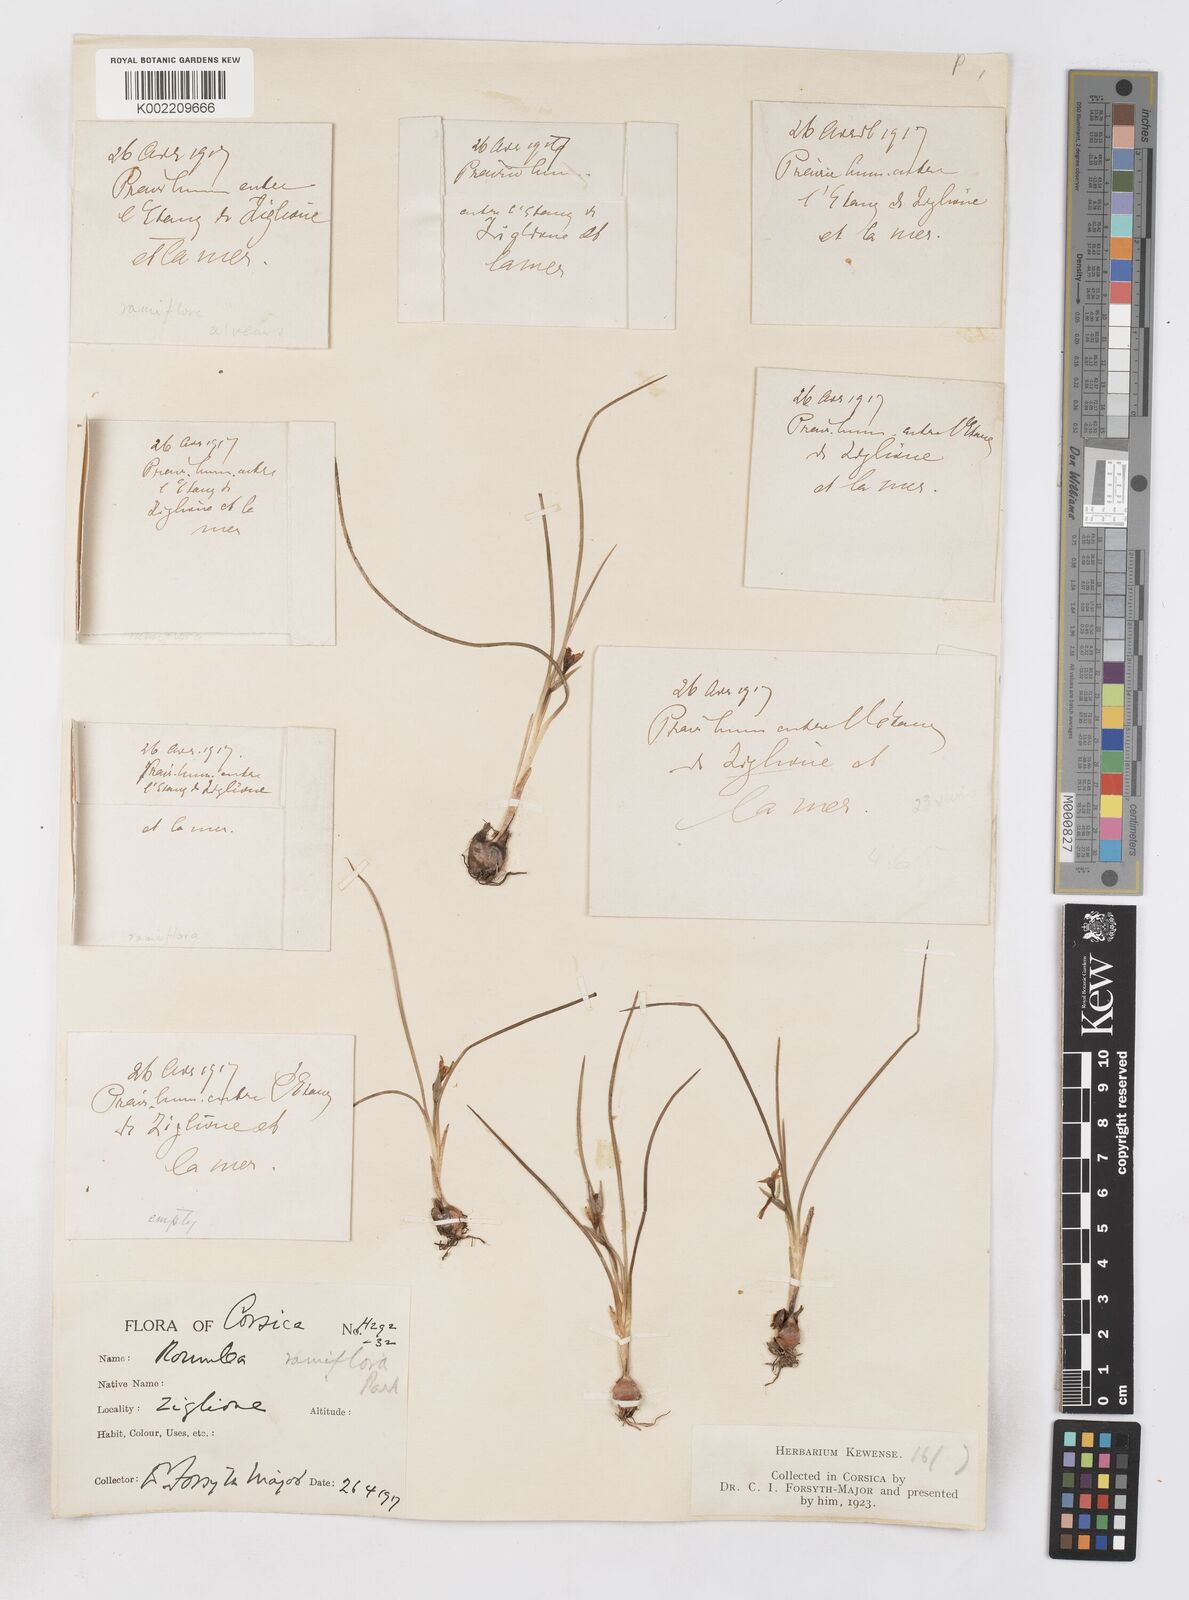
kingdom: Plantae
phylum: Tracheophyta
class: Liliopsida
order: Asparagales
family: Iridaceae
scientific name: Iridaceae
